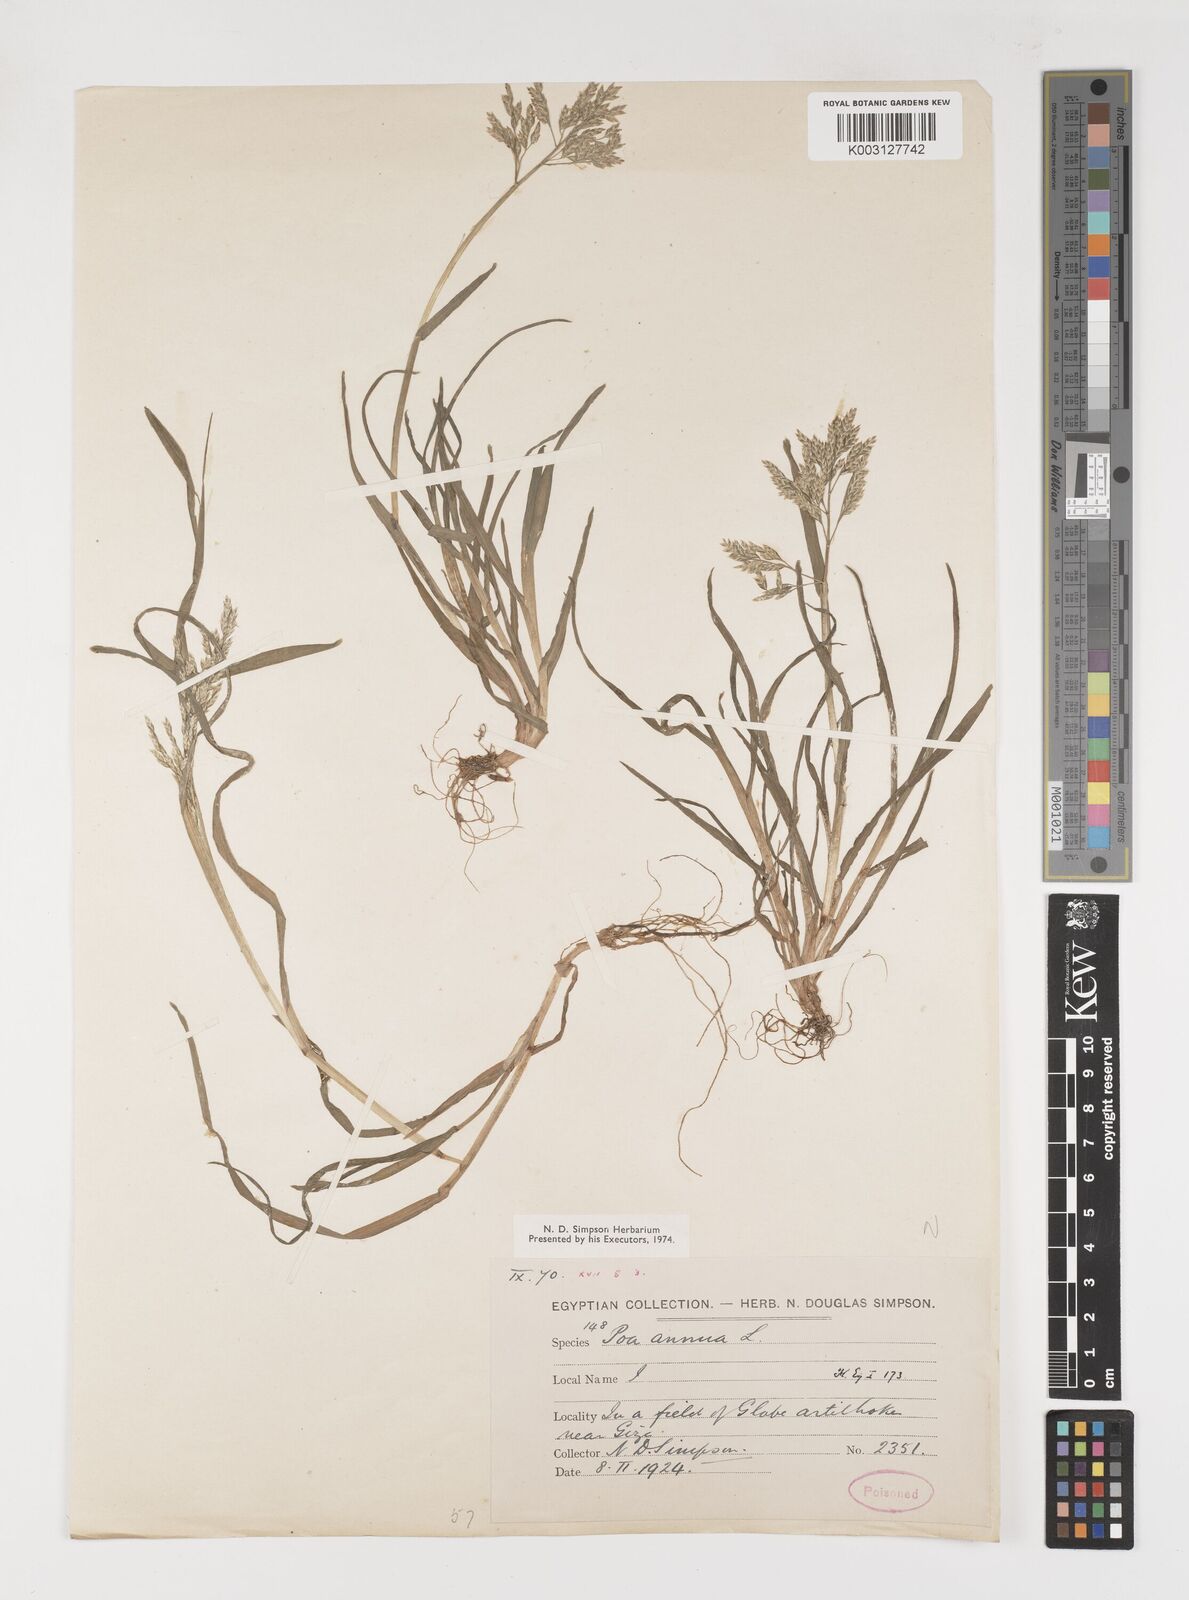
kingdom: Plantae
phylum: Tracheophyta
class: Liliopsida
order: Poales
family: Poaceae
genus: Poa
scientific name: Poa annua
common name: Annual bluegrass
